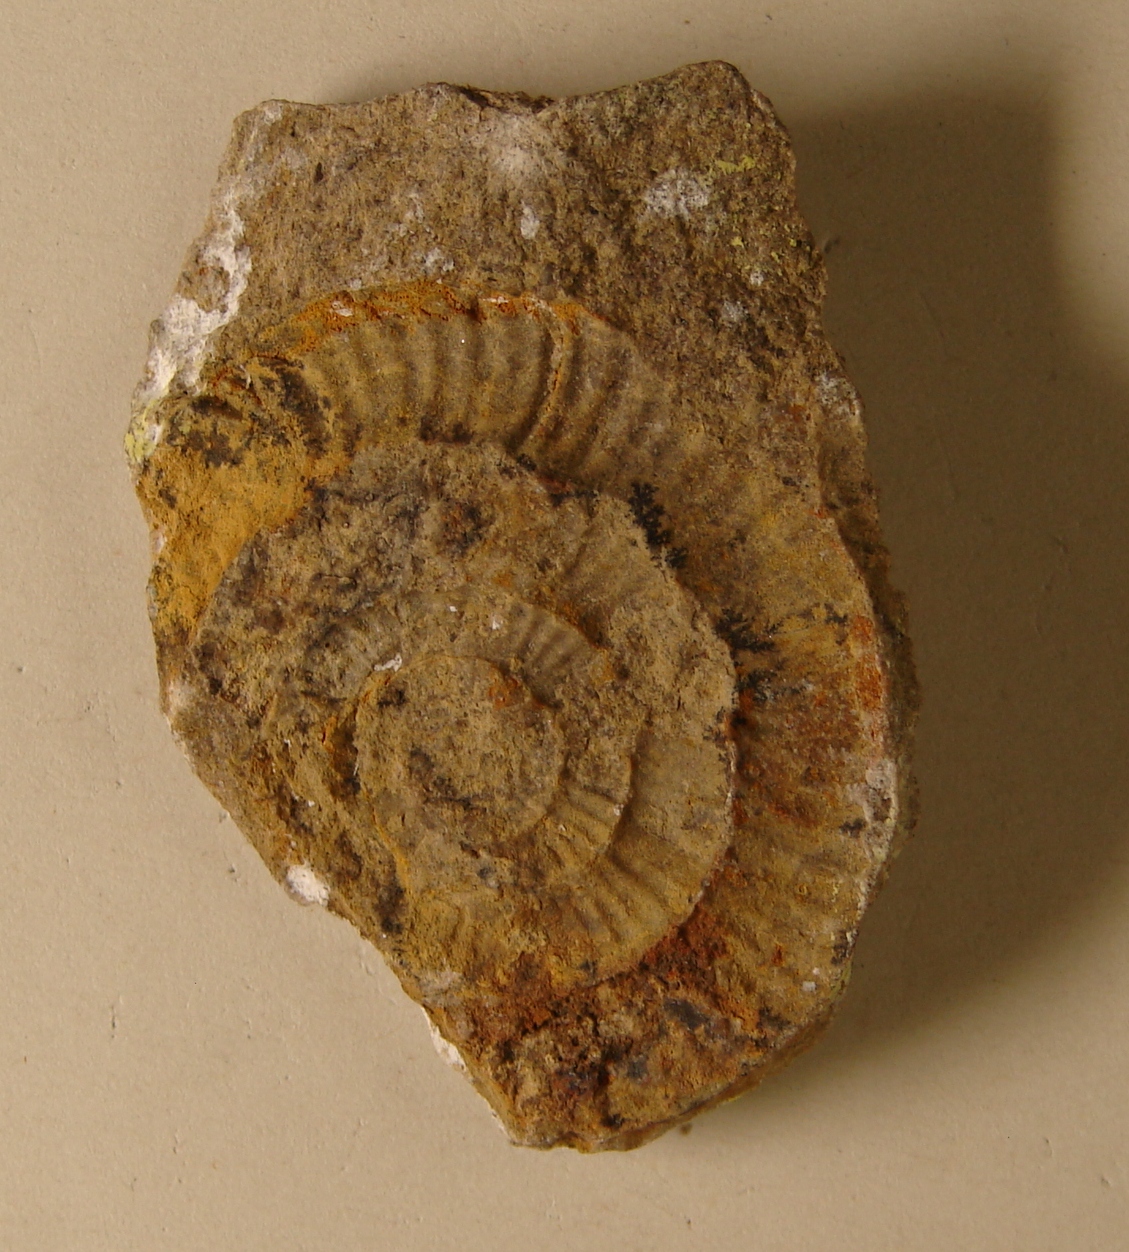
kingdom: Animalia
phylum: Mollusca
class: Cephalopoda
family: Arietitidae
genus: Alsatites
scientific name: Alsatites laqueus
